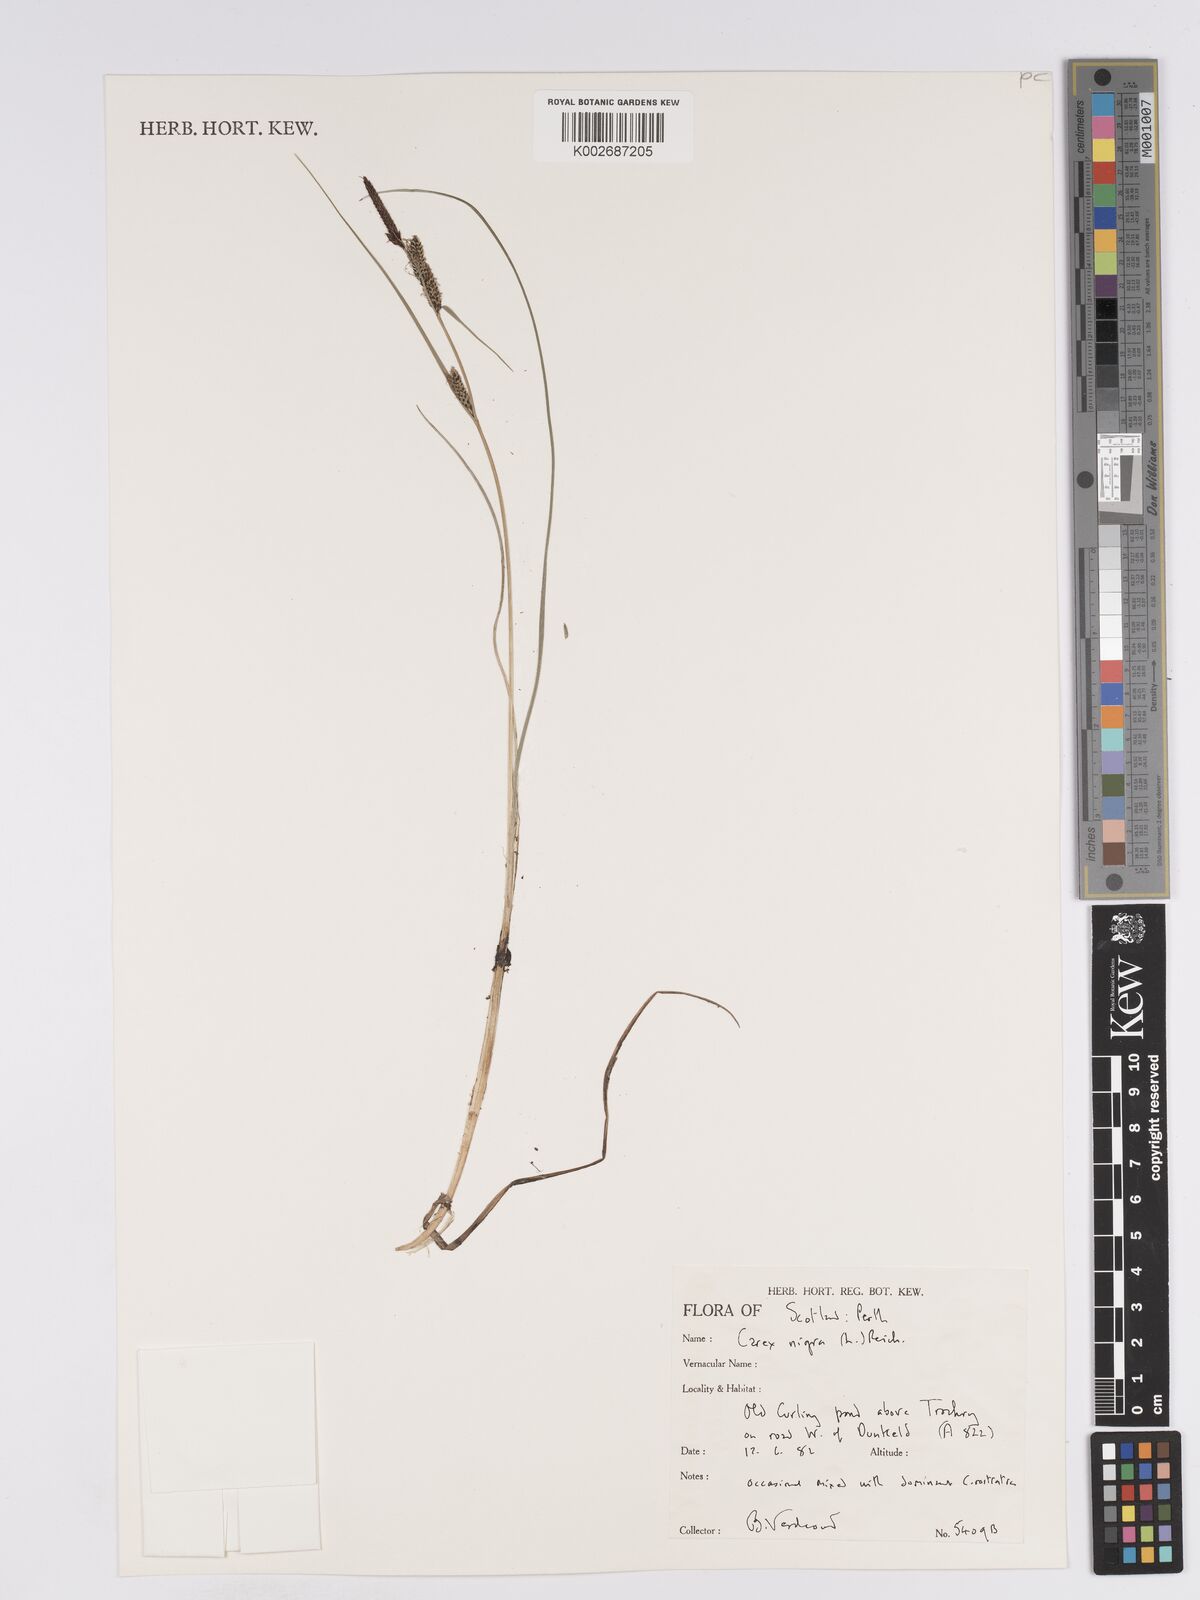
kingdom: Plantae
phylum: Tracheophyta
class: Liliopsida
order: Poales
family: Cyperaceae
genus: Carex
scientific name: Carex nigra
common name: Common sedge
